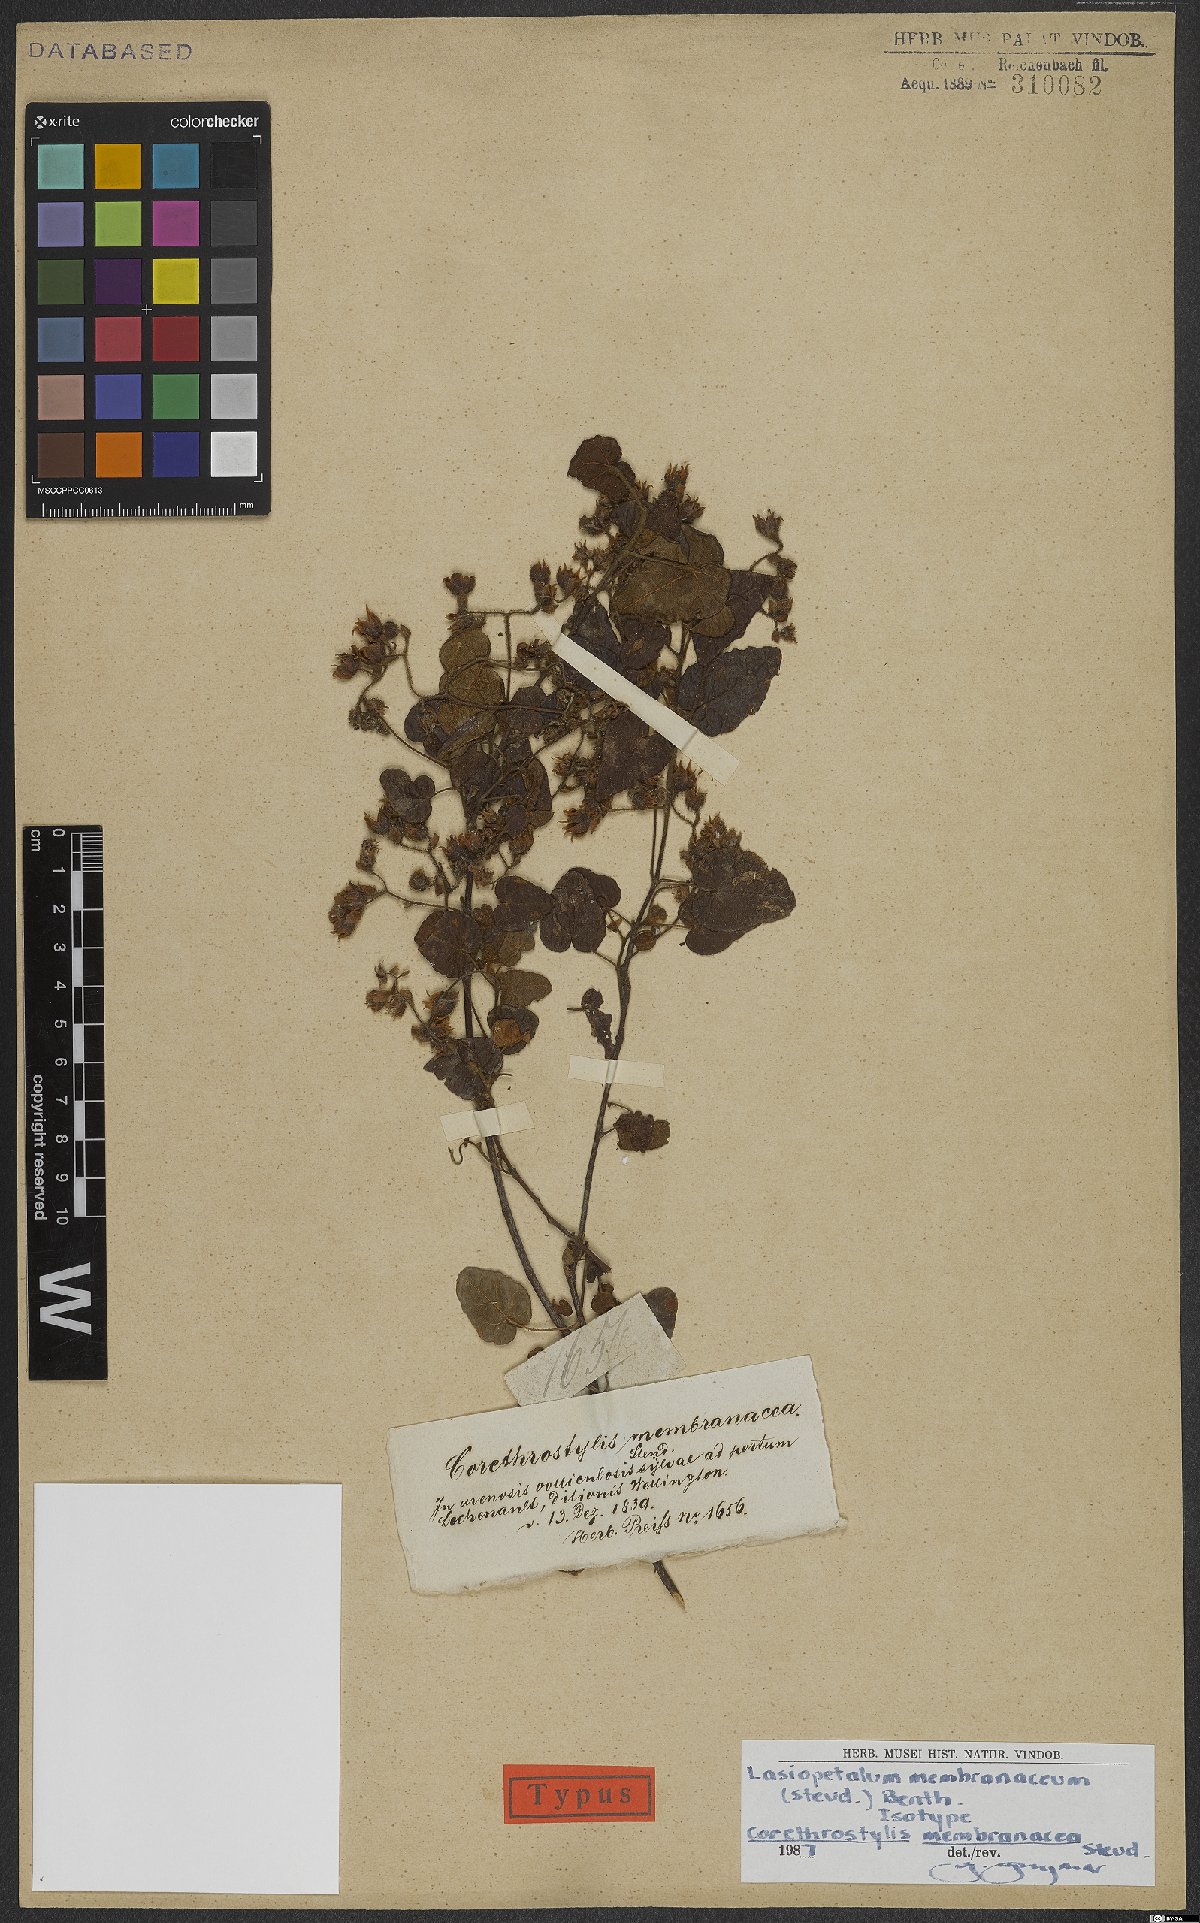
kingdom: Plantae
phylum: Tracheophyta
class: Magnoliopsida
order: Malvales
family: Malvaceae
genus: Lasiopetalum
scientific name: Lasiopetalum membranaceum
